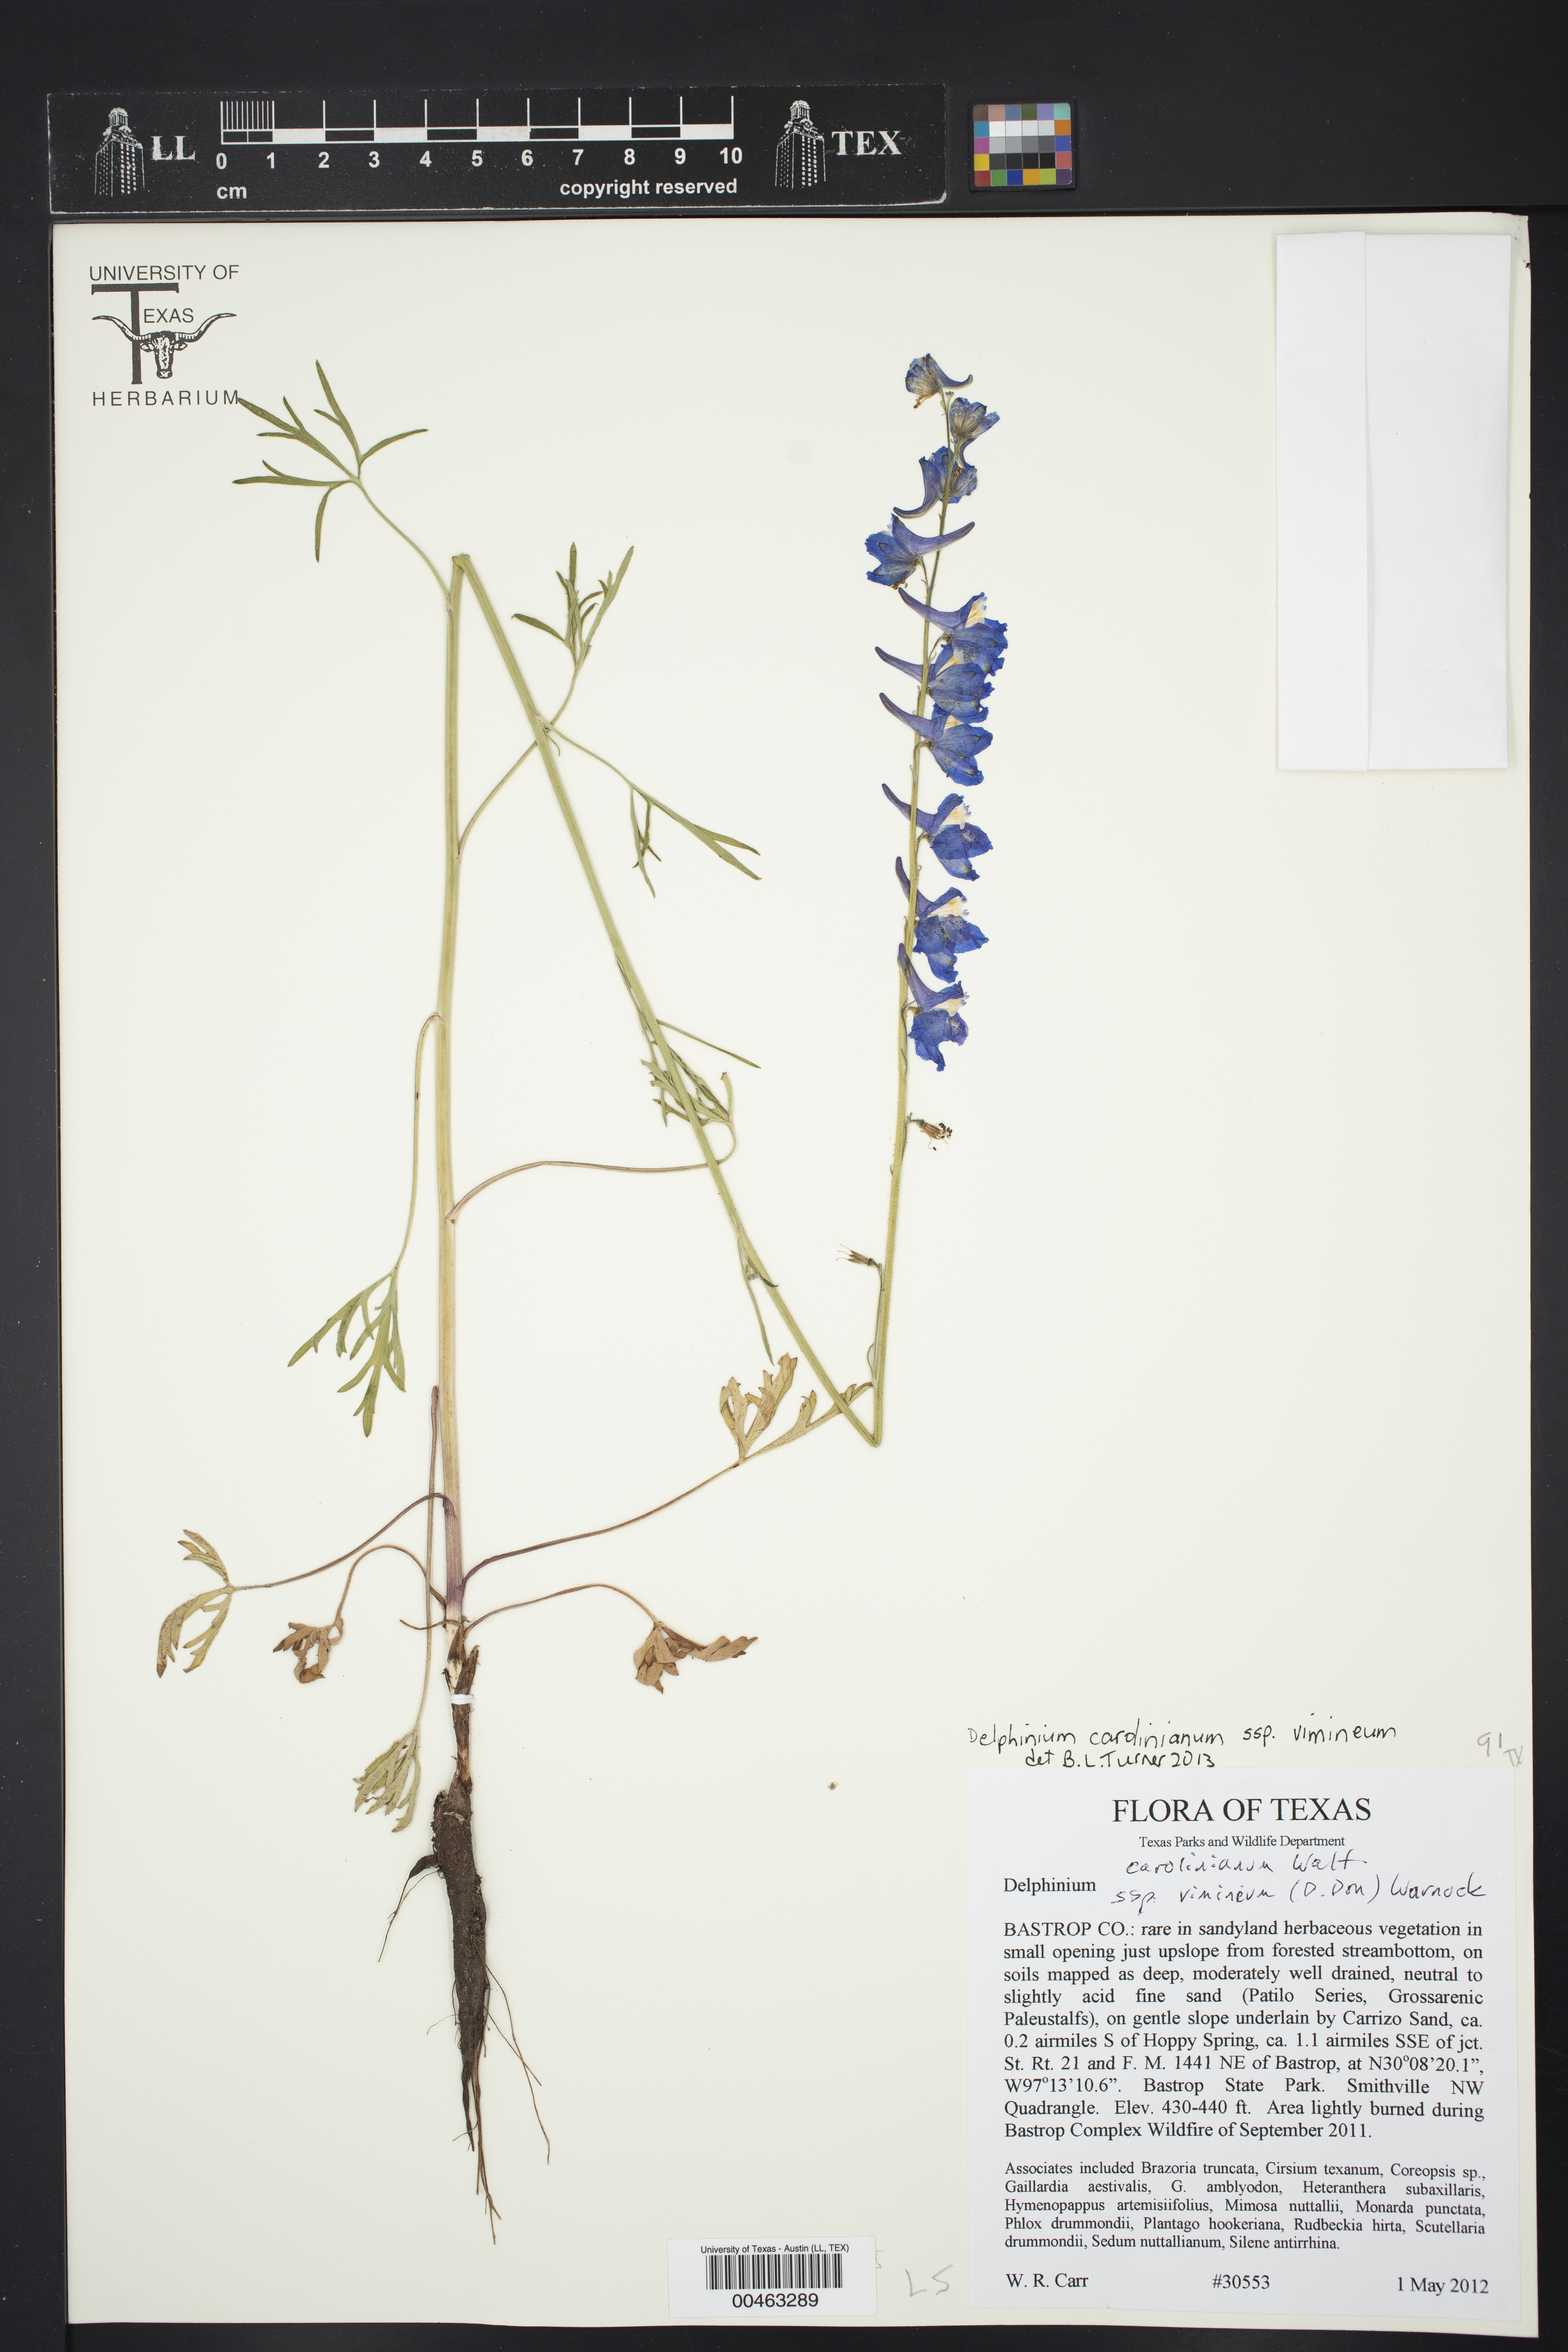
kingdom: Plantae
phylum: Tracheophyta
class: Magnoliopsida
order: Ranunculales
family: Ranunculaceae
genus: Delphinium
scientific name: Delphinium carolinianum
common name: Carolina larkspur
